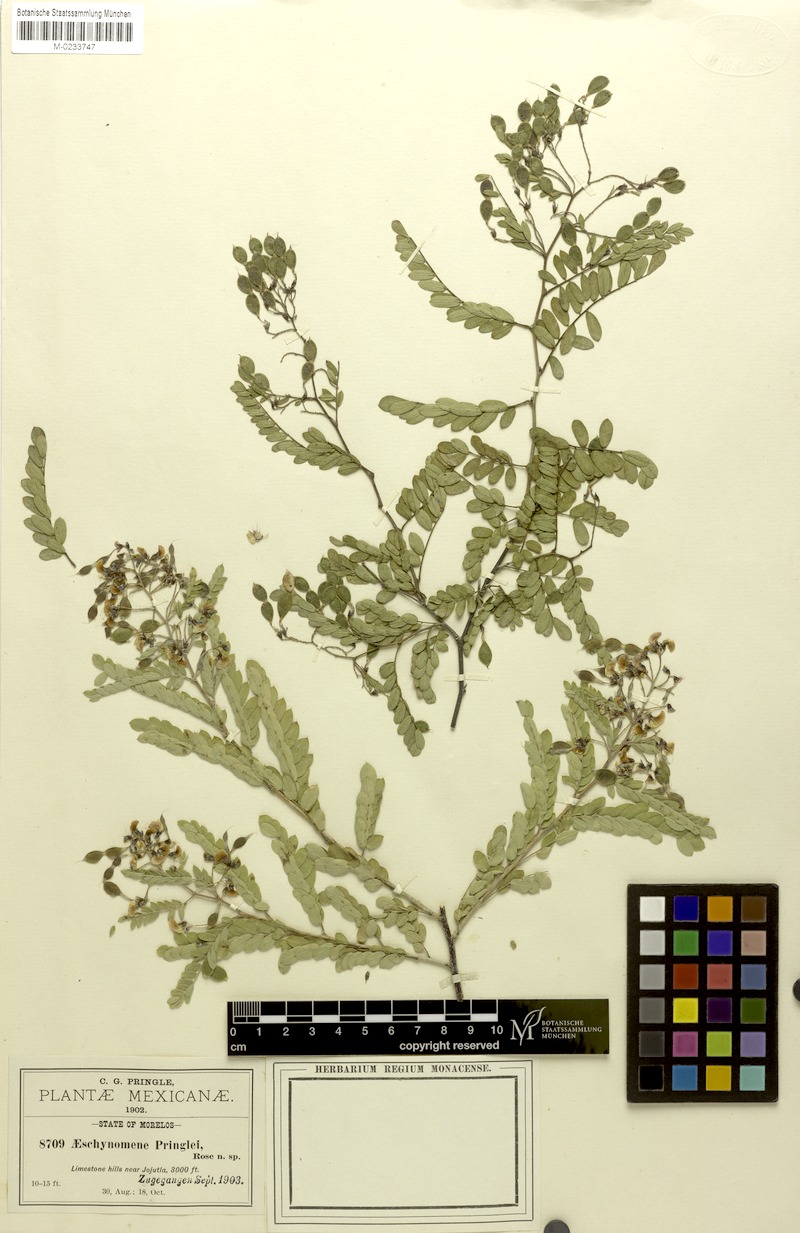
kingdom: Plantae
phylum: Tracheophyta
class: Magnoliopsida
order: Fabales
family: Fabaceae
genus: Ctenodon
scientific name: Ctenodon petraeus
